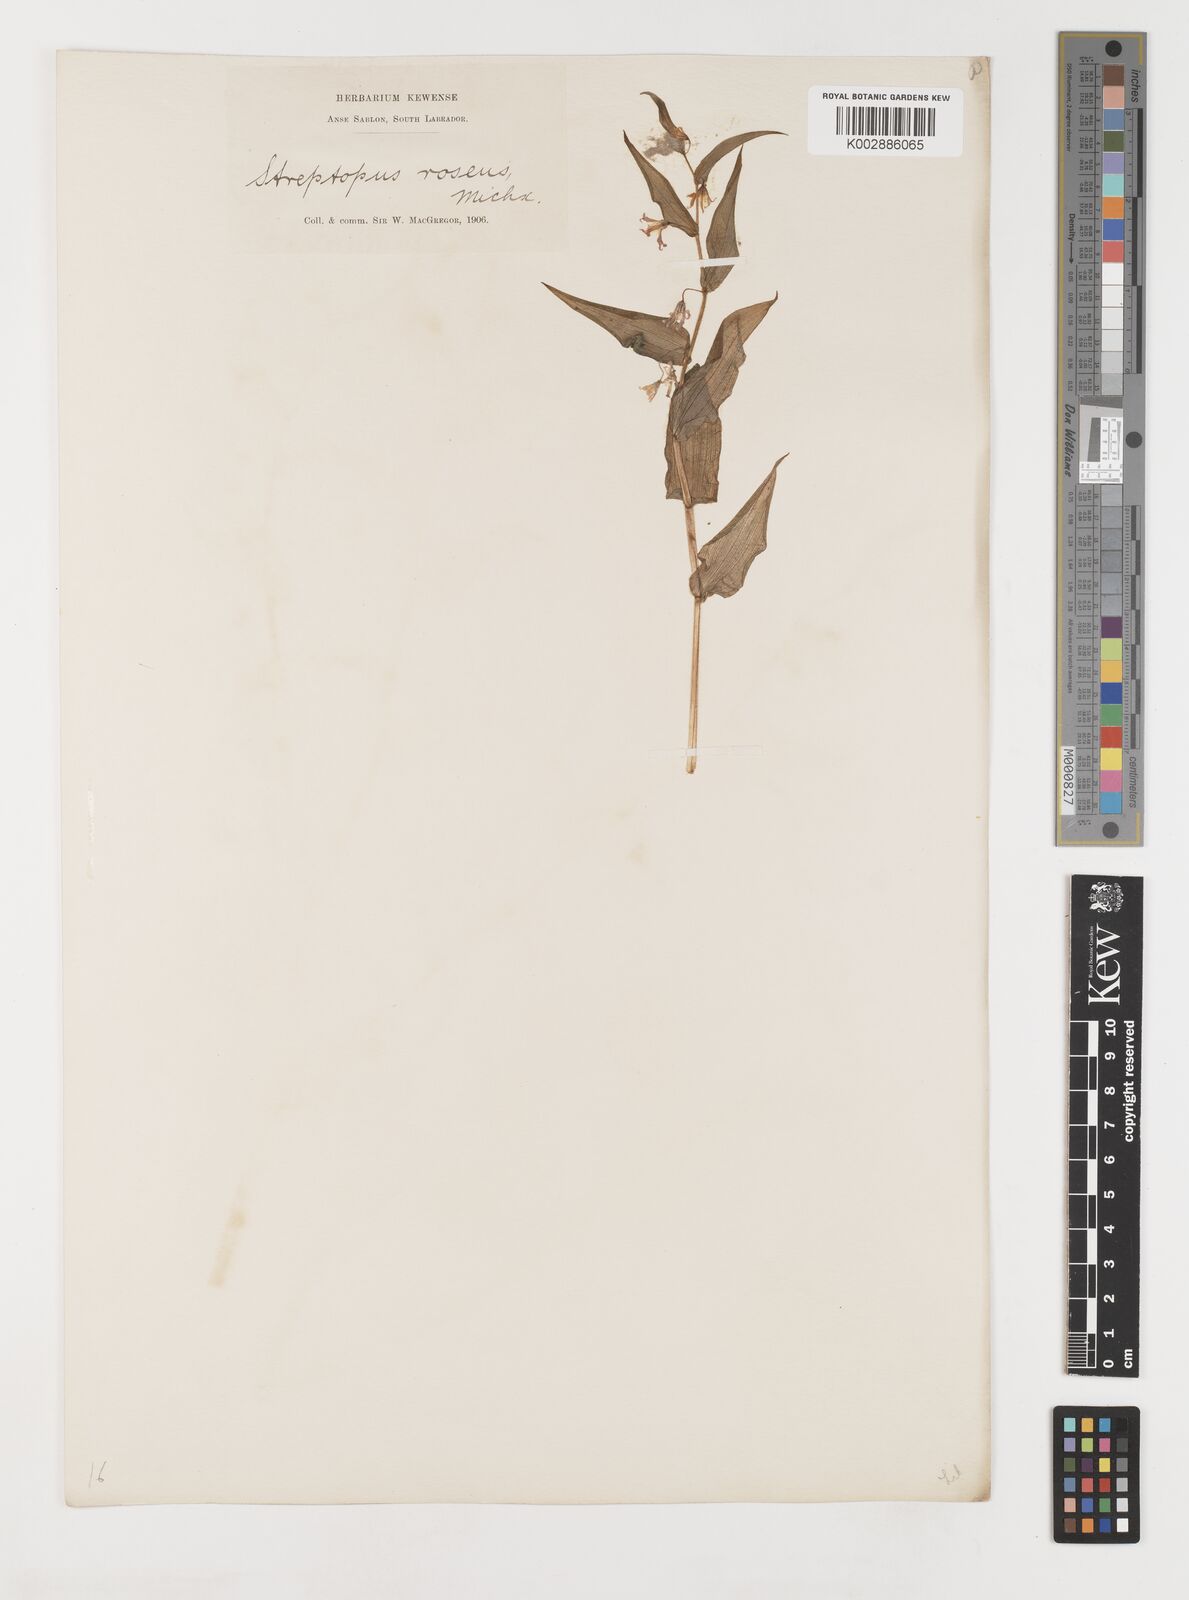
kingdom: Plantae
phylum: Tracheophyta
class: Liliopsida
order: Liliales
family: Liliaceae
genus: Streptopus
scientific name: Streptopus lanceolatus
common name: Rose mandarin
